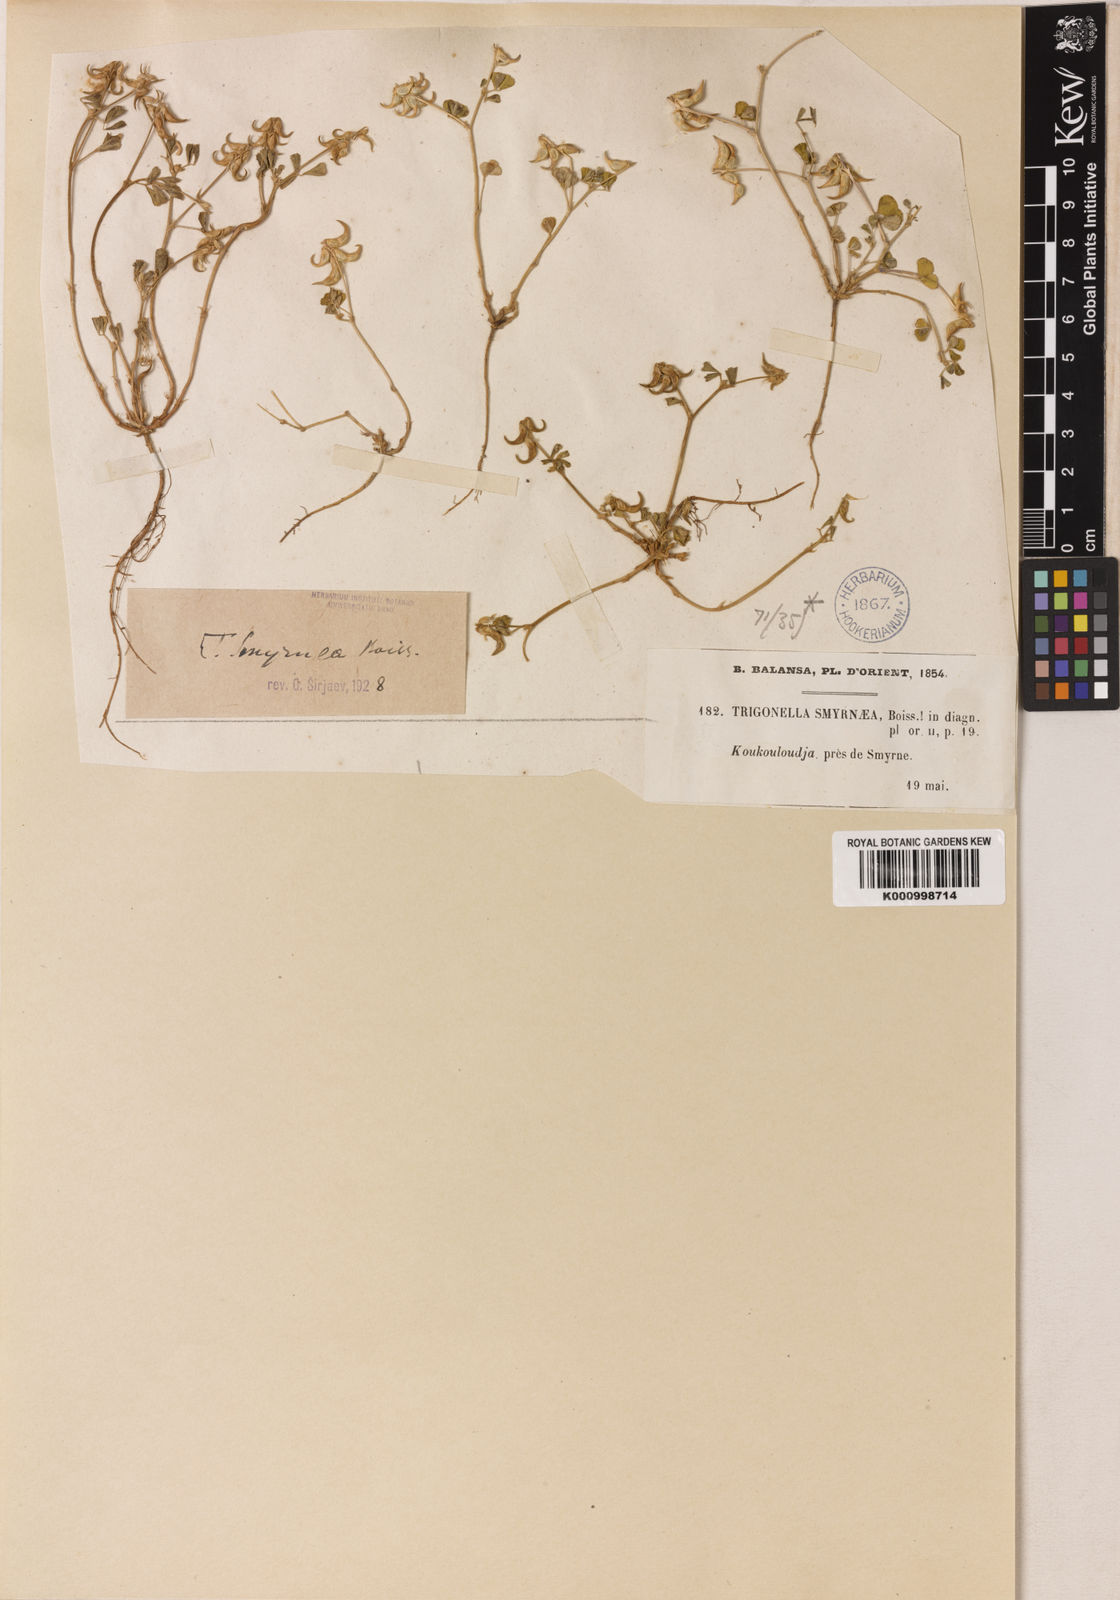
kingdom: Plantae
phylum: Tracheophyta
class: Magnoliopsida
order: Fabales
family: Fabaceae
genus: Trigonella
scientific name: Trigonella smyrnea
